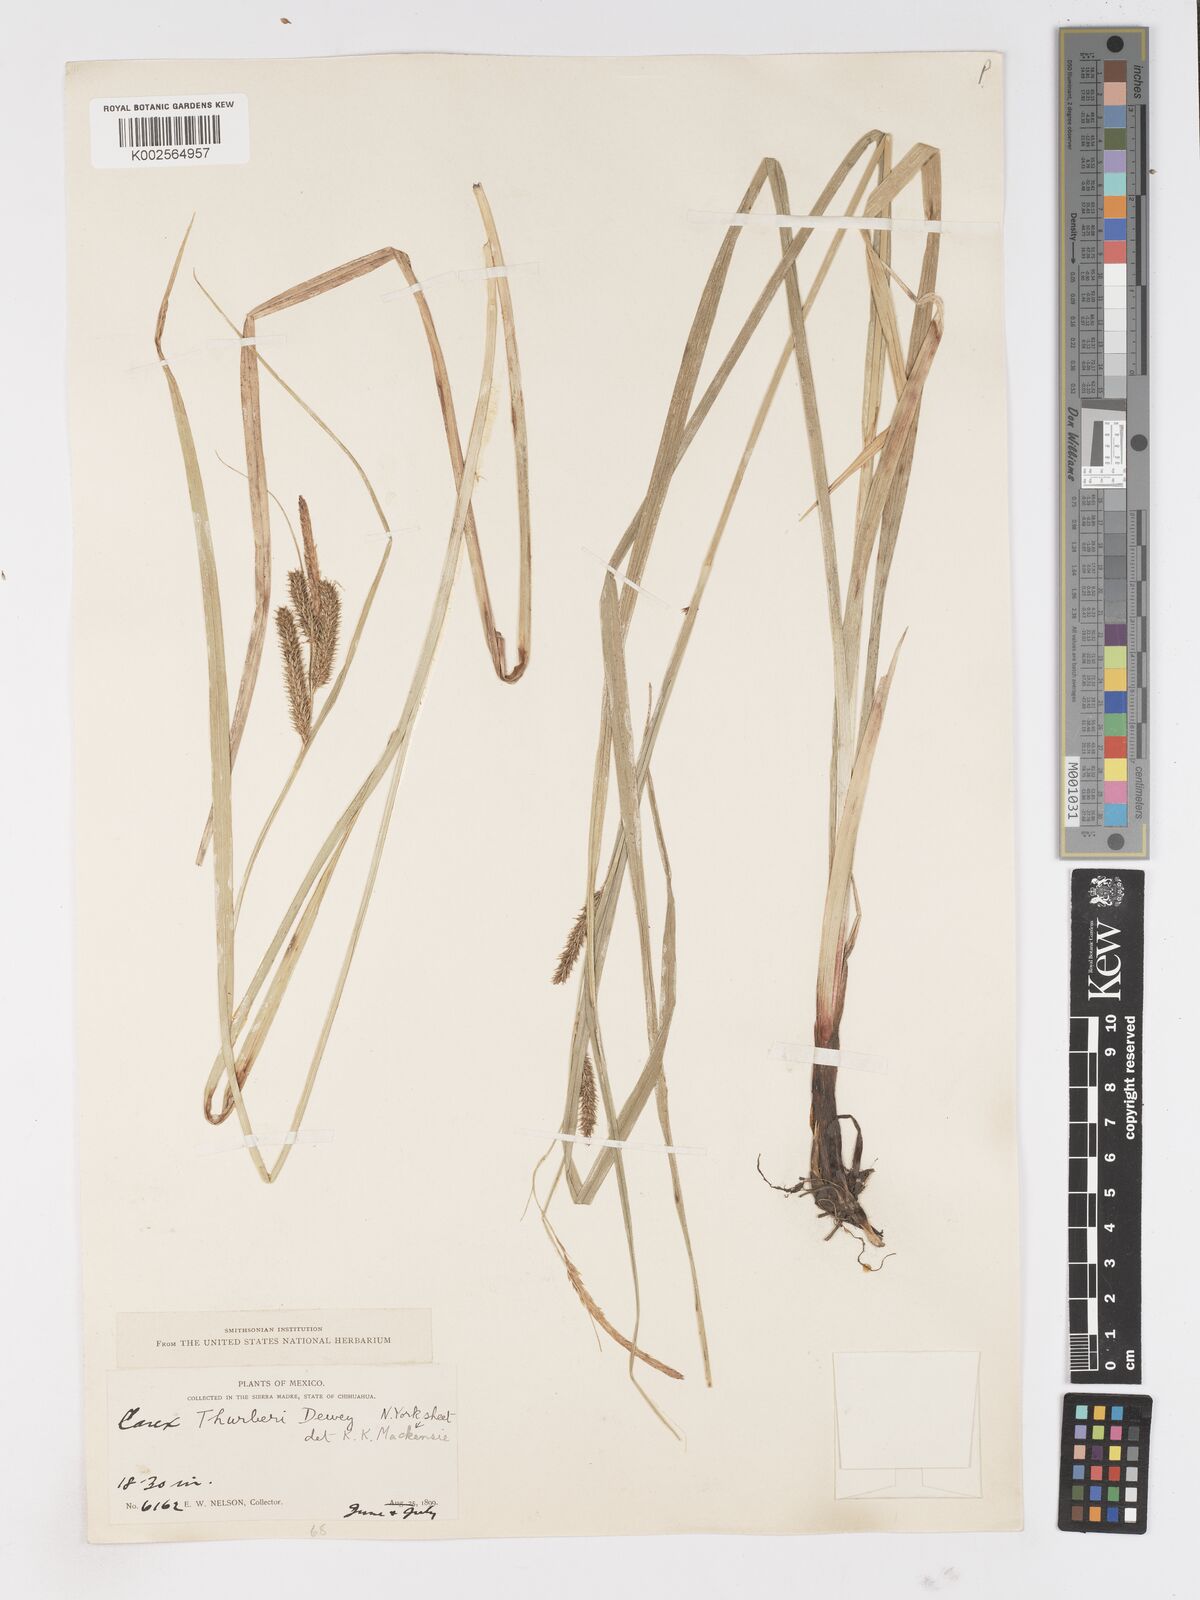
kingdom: Plantae
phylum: Tracheophyta
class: Liliopsida
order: Poales
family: Cyperaceae
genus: Carex
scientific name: Carex thurberi
